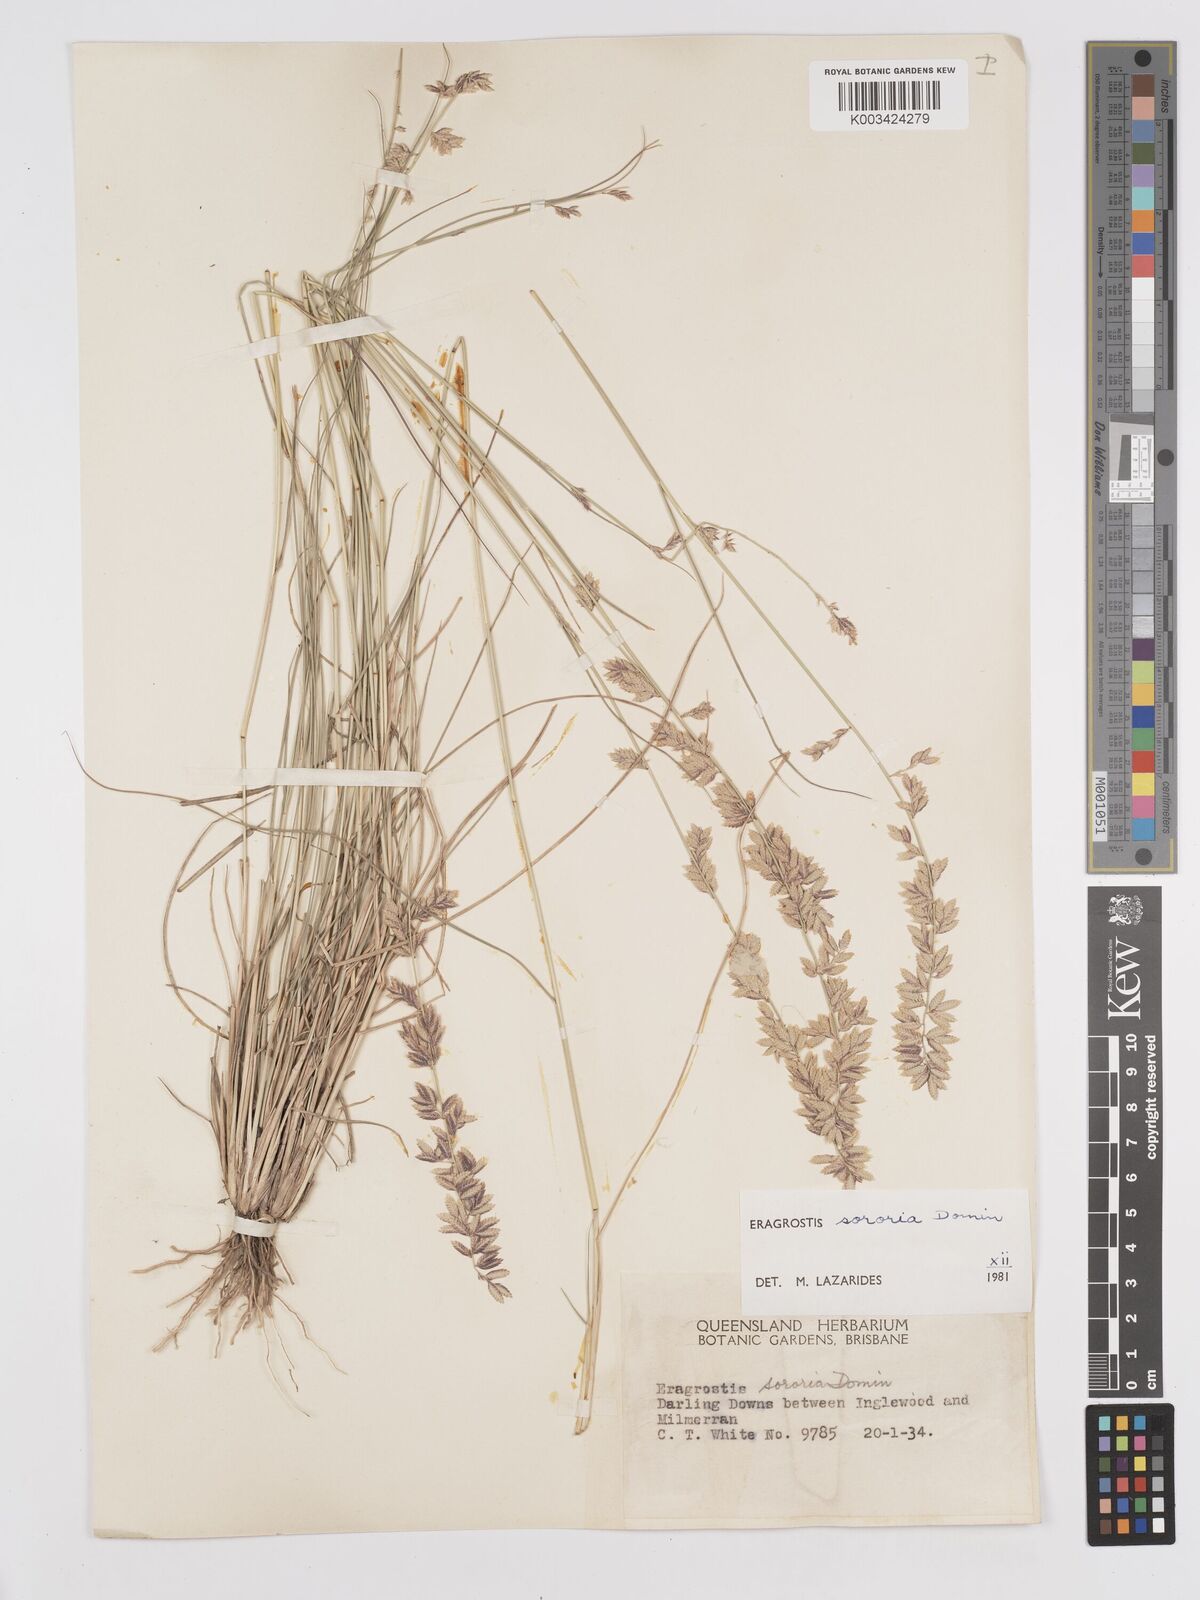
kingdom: Plantae
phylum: Tracheophyta
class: Liliopsida
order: Poales
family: Poaceae
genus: Eragrostis
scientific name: Eragrostis sororia
